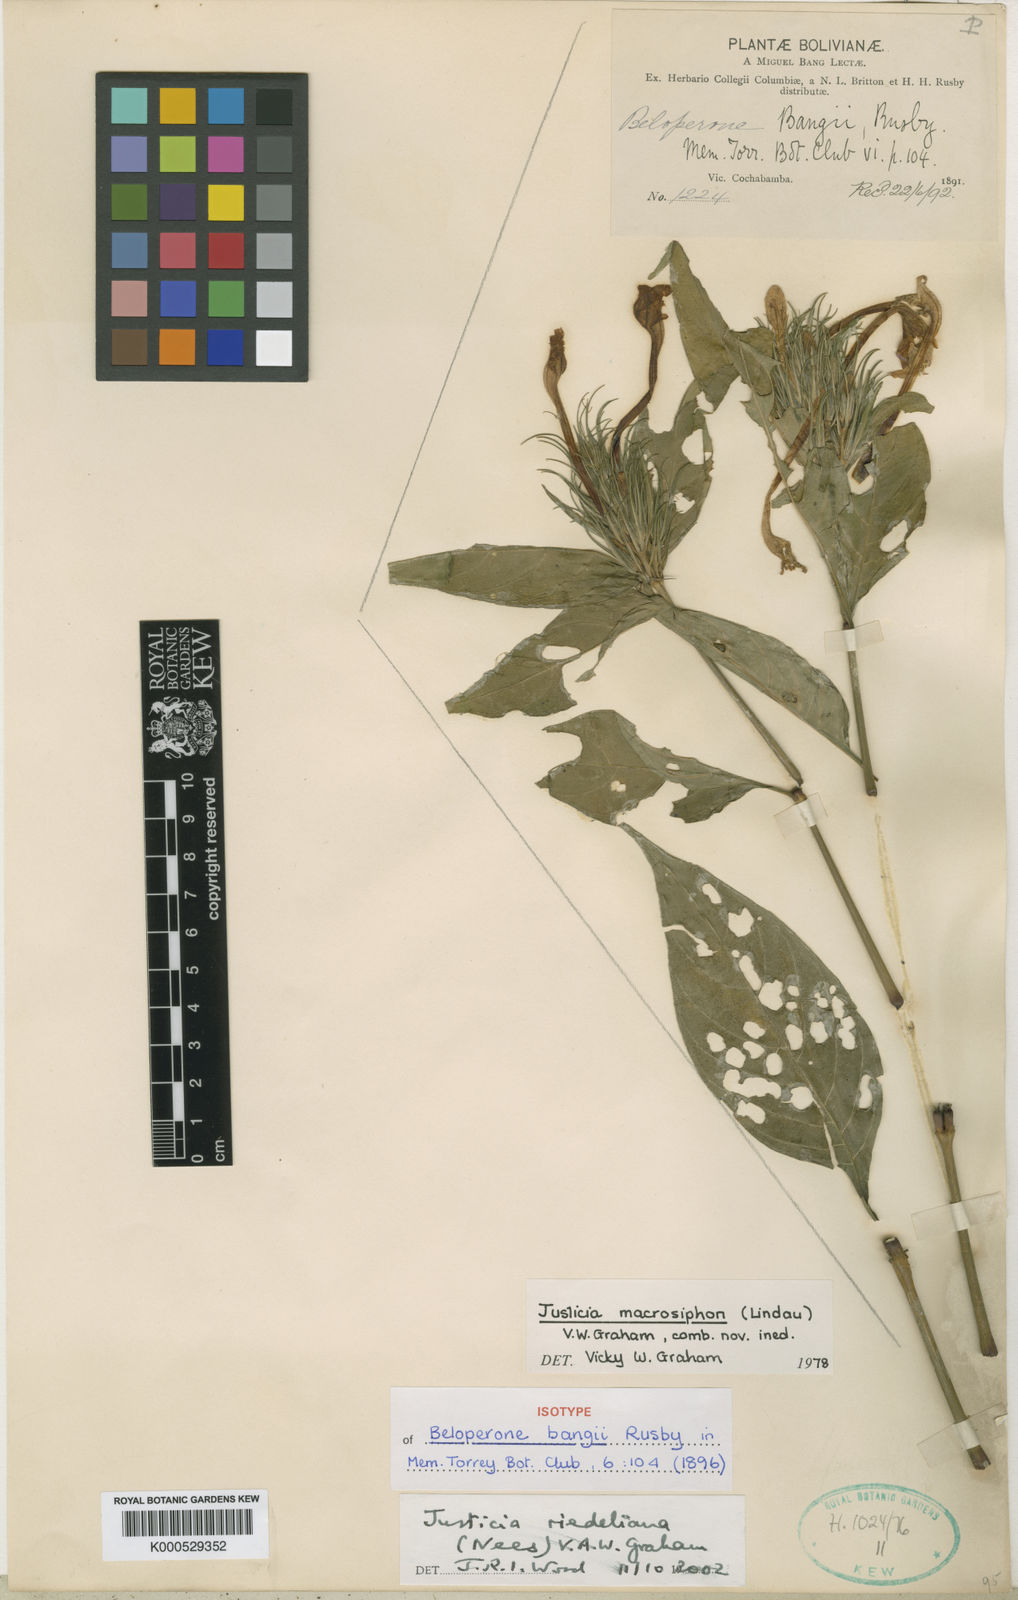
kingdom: Plantae
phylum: Tracheophyta
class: Magnoliopsida
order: Lamiales
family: Acanthaceae
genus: Justicia
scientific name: Justicia riedeliana
